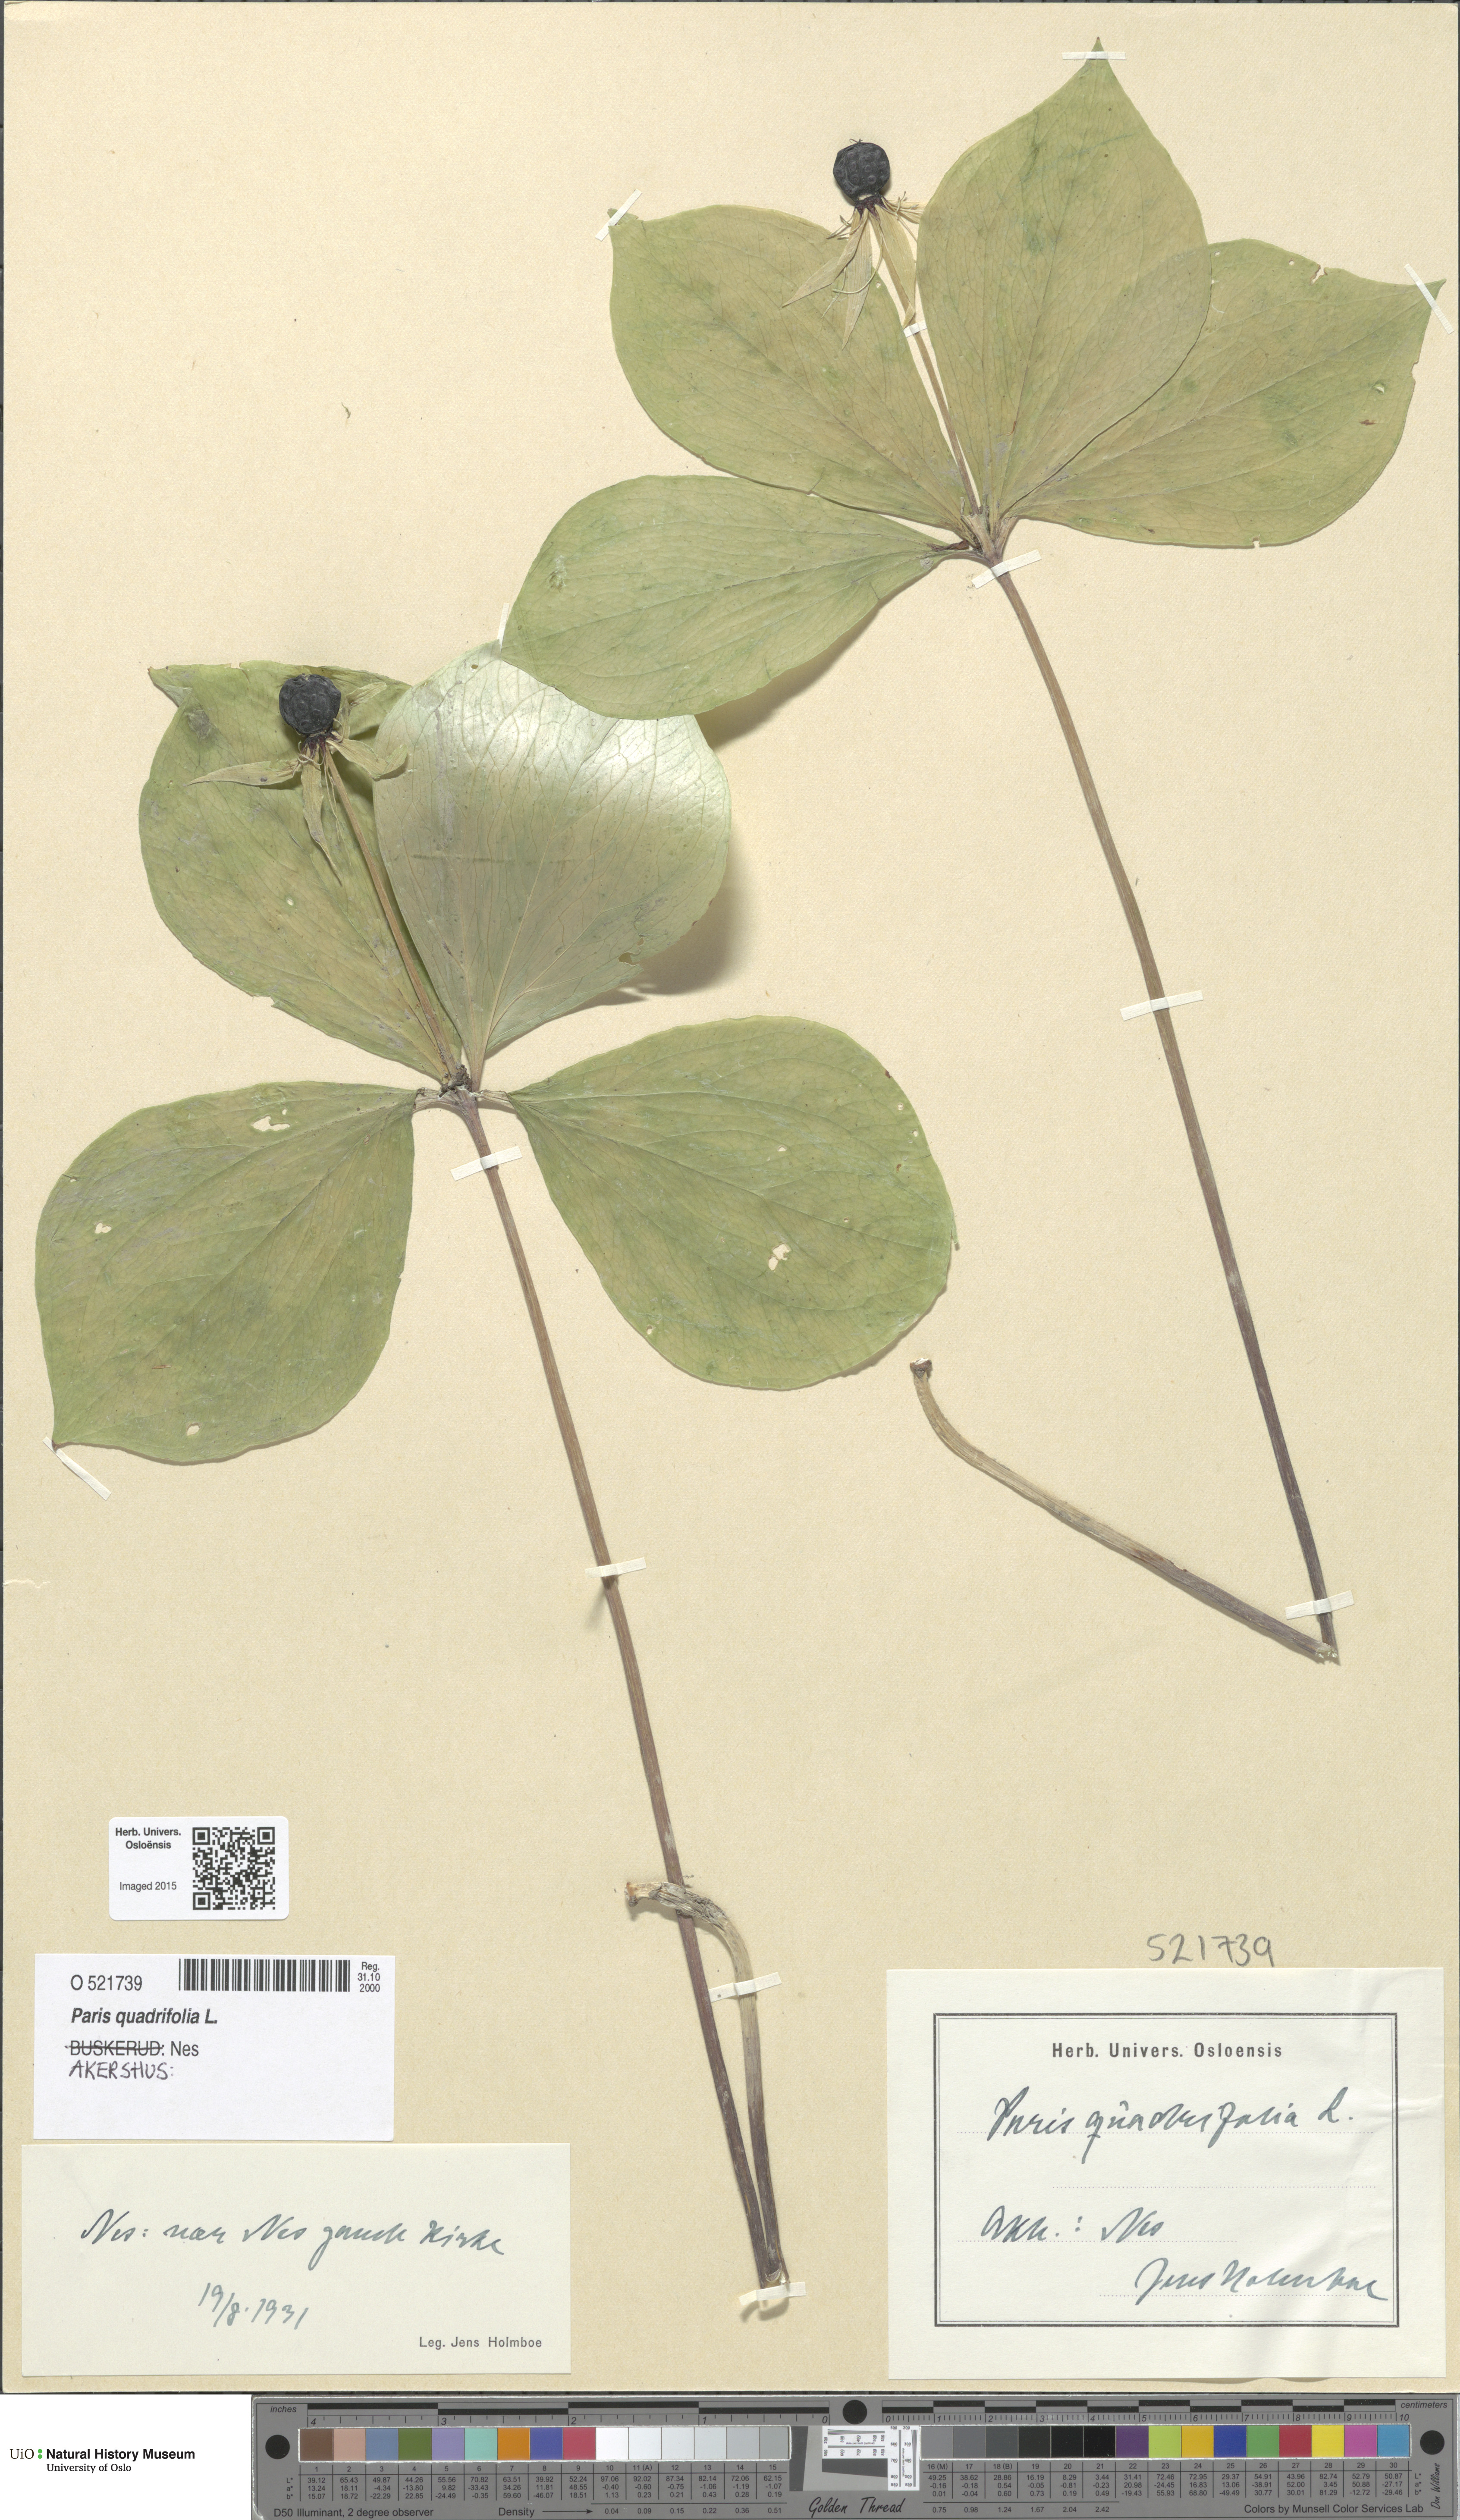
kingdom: Plantae
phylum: Tracheophyta
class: Liliopsida
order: Liliales
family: Melanthiaceae
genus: Paris
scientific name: Paris quadrifolia
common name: Herb-paris
